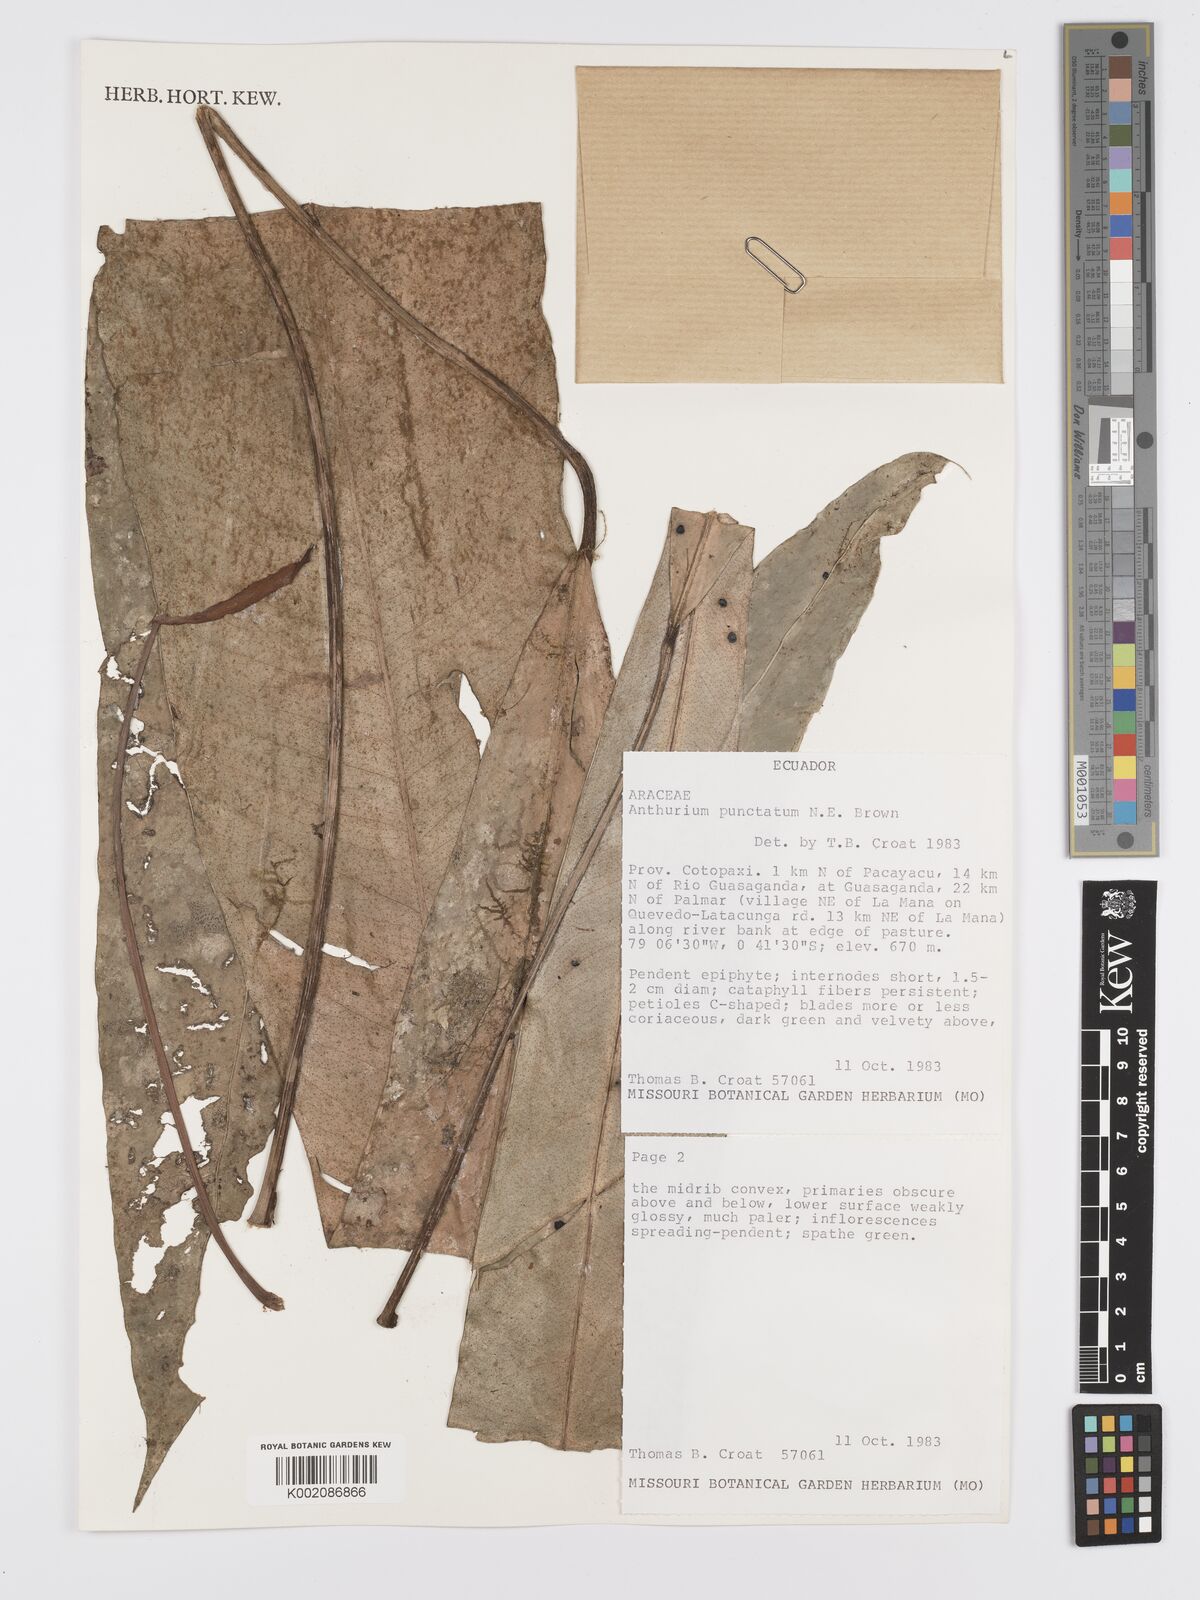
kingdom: Plantae
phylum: Tracheophyta
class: Liliopsida
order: Alismatales
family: Araceae
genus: Anthurium
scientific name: Anthurium punctatum
